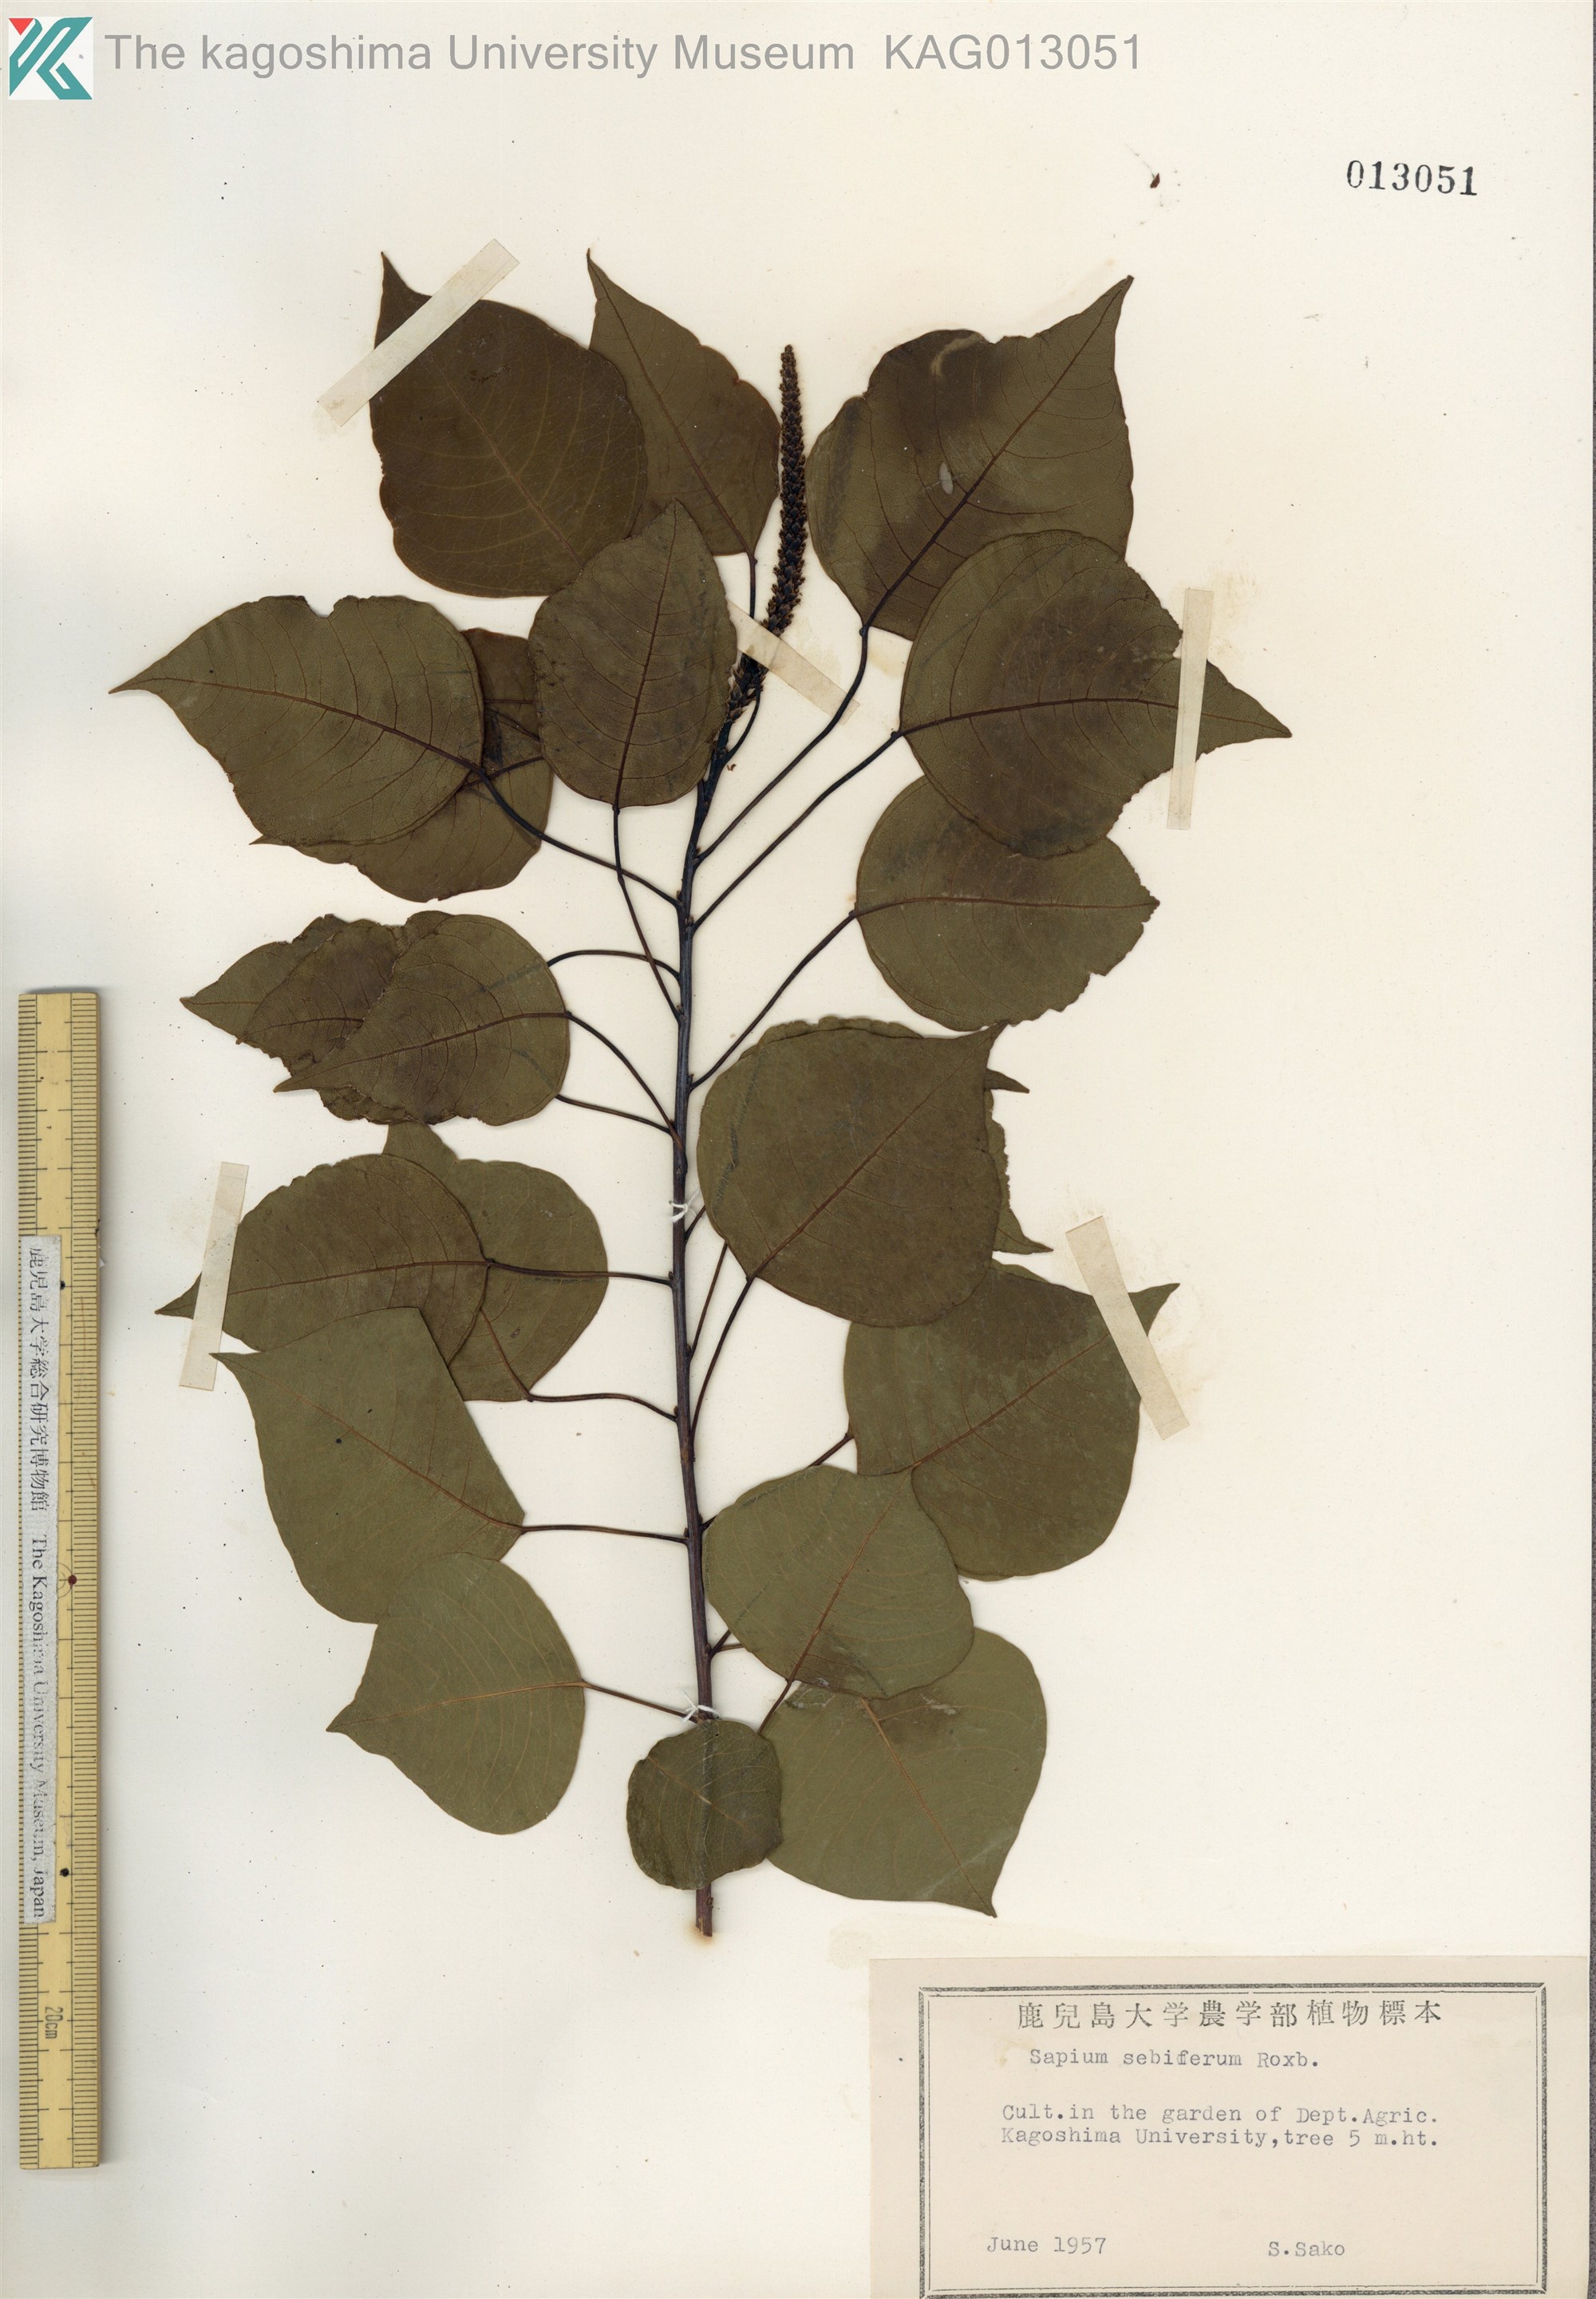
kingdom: Plantae
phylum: Tracheophyta
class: Magnoliopsida
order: Malpighiales
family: Euphorbiaceae
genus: Triadica
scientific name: Triadica sebifera
